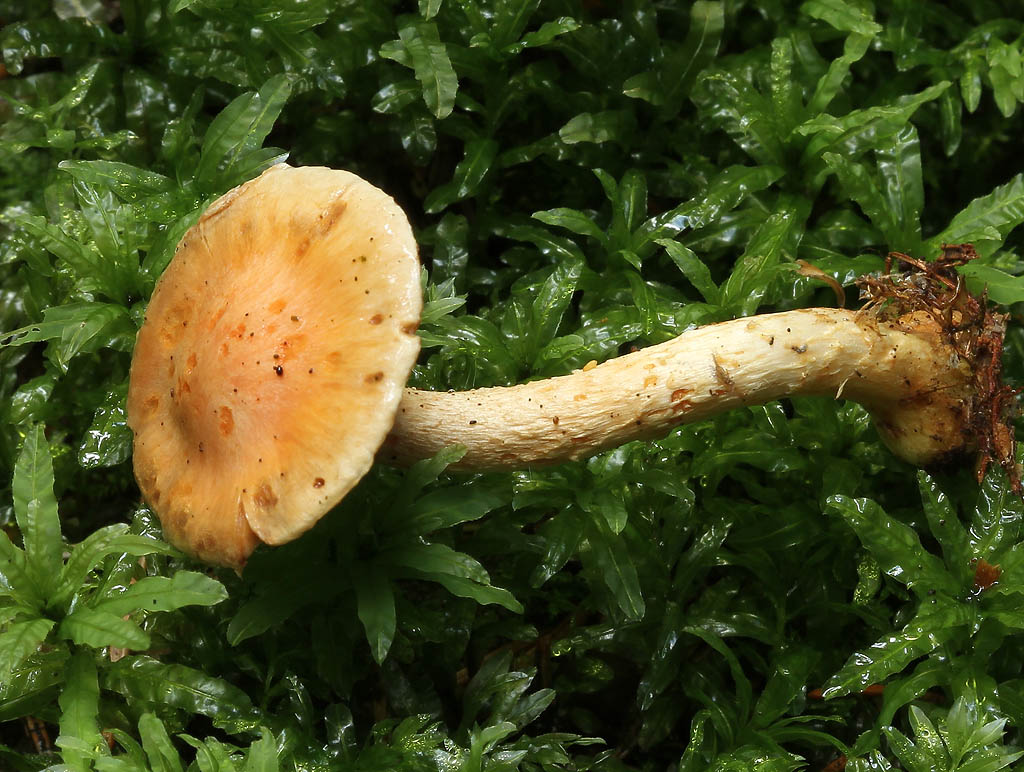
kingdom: Fungi
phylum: Basidiomycota
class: Agaricomycetes
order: Agaricales
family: Strophariaceae
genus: Pyrrhulomyces
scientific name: Pyrrhulomyces astragalinus
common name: safran-skælhat
